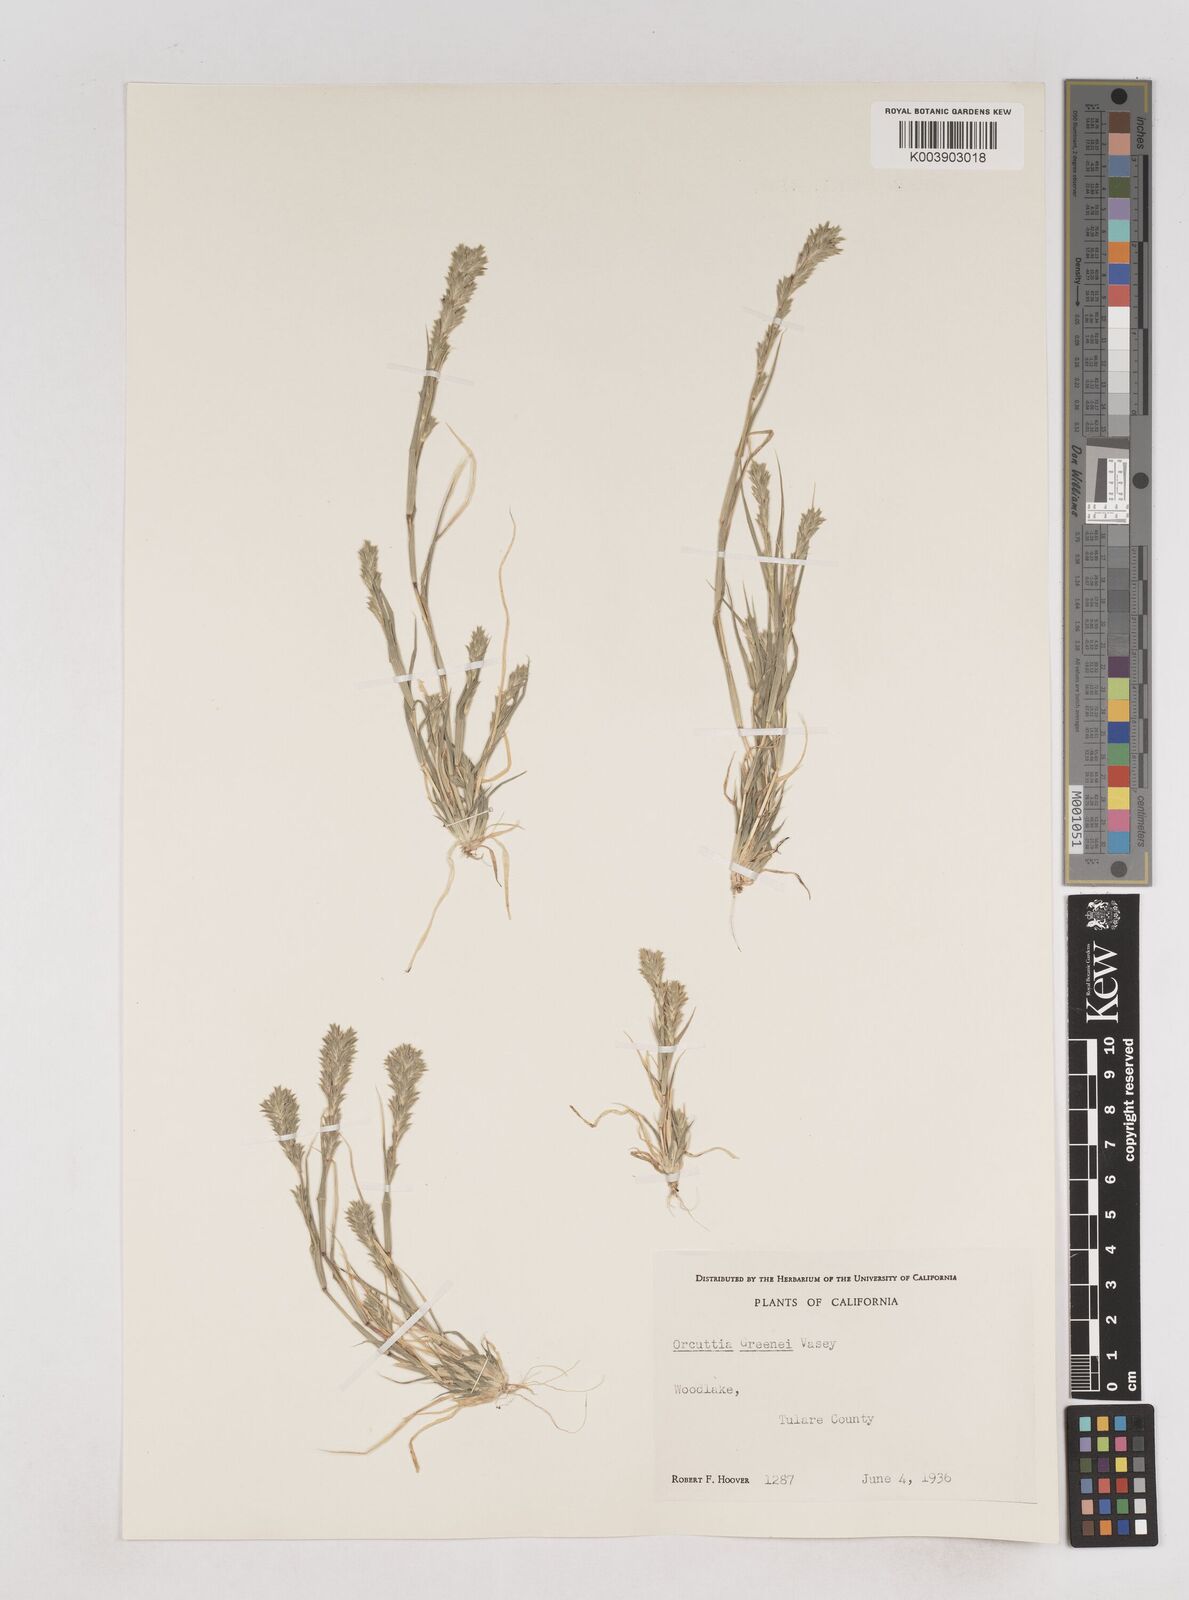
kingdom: Plantae
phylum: Tracheophyta
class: Liliopsida
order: Poales
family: Poaceae
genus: Tuctoria
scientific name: Tuctoria greenei
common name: Awnless spiral grass
